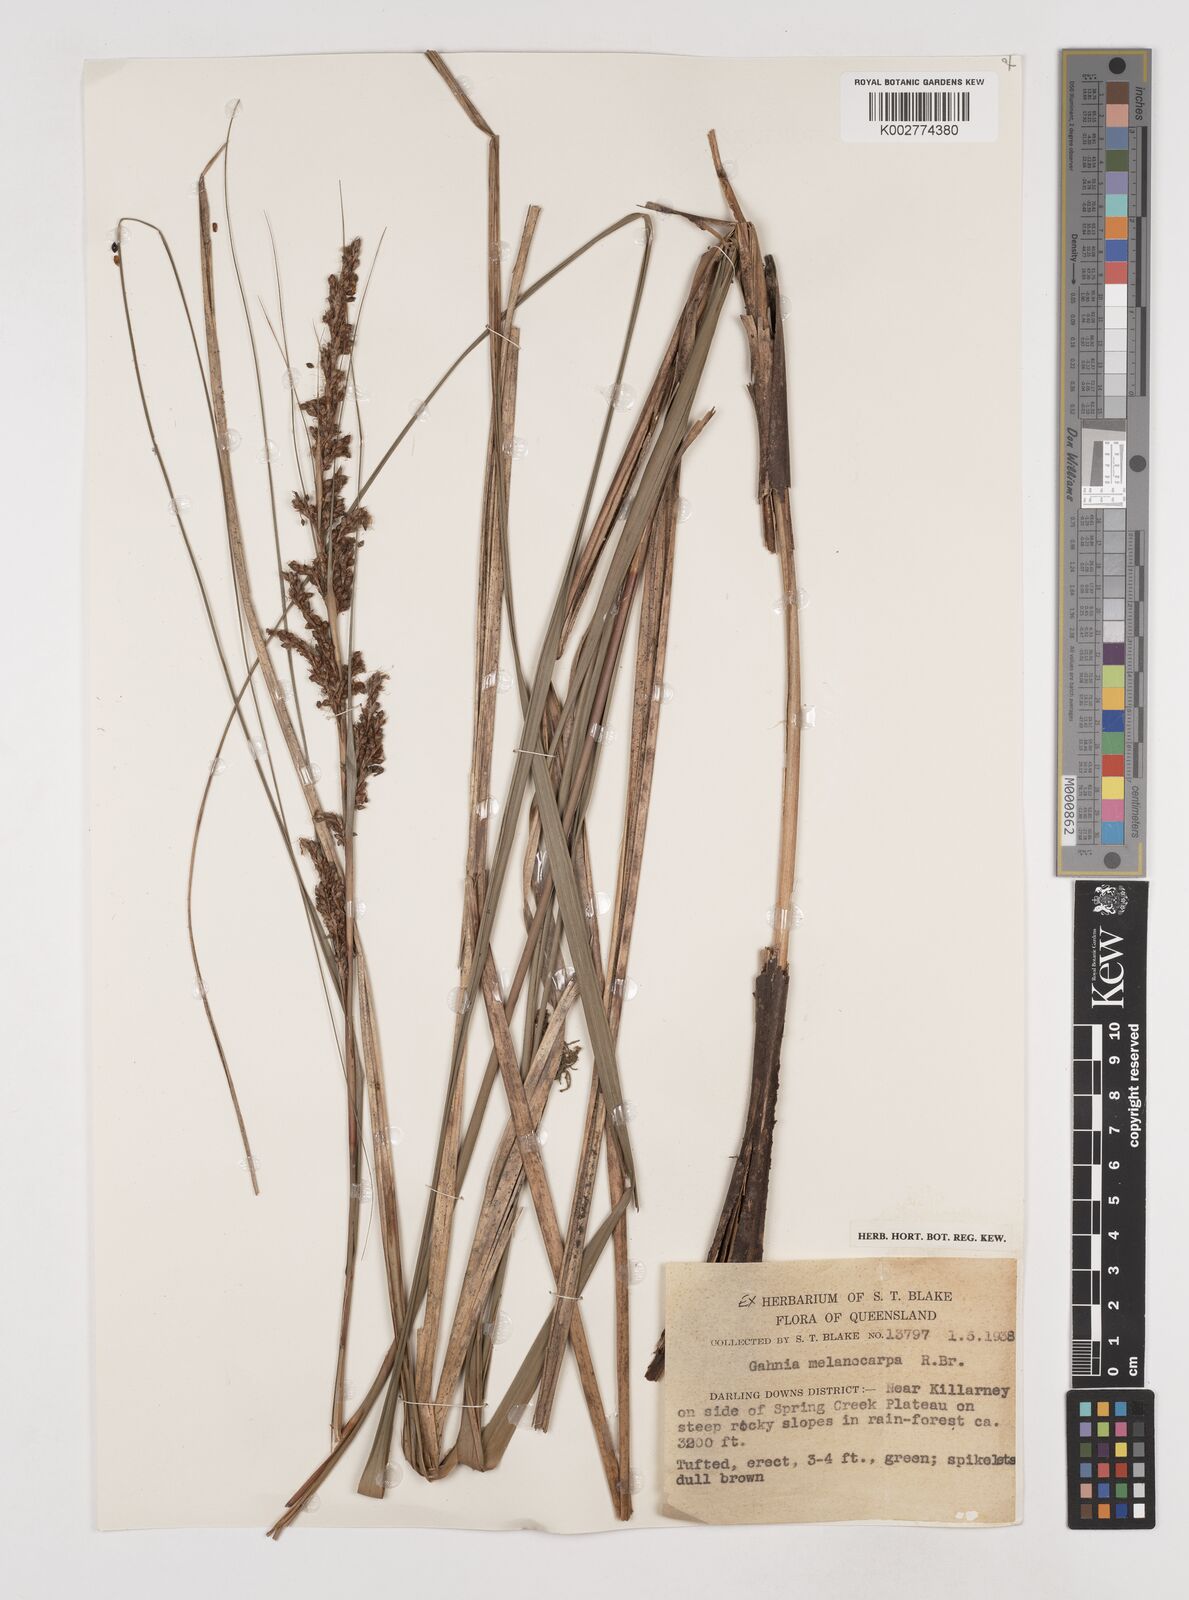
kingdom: Plantae
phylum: Tracheophyta
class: Liliopsida
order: Poales
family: Cyperaceae
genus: Gahnia
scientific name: Gahnia melanocarpa
